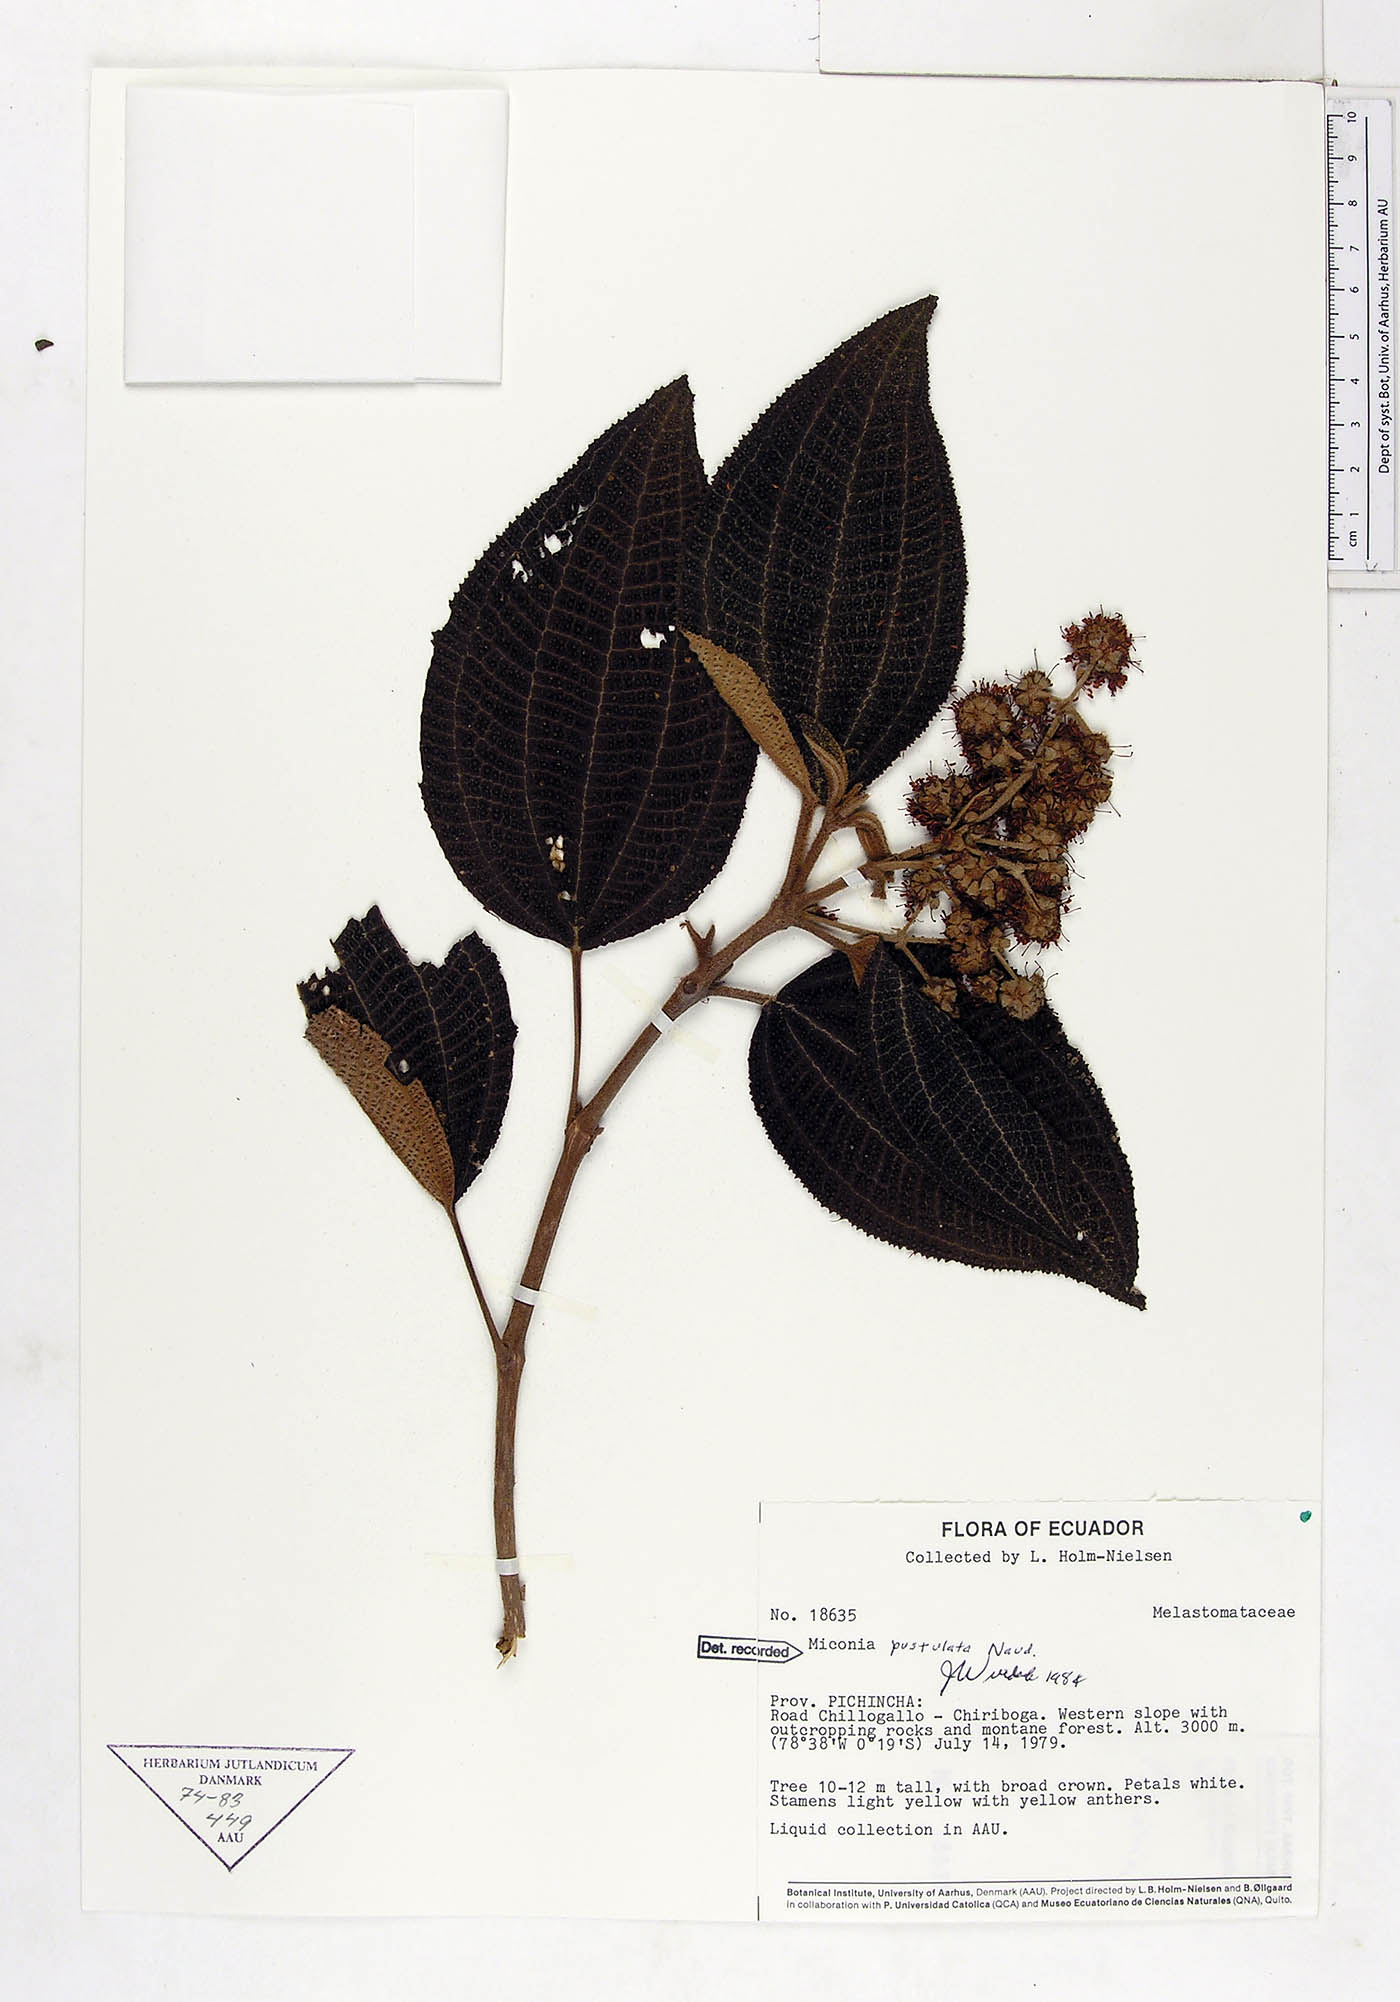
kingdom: Plantae
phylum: Tracheophyta
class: Magnoliopsida
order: Myrtales
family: Melastomataceae
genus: Miconia
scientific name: Miconia pustulata
